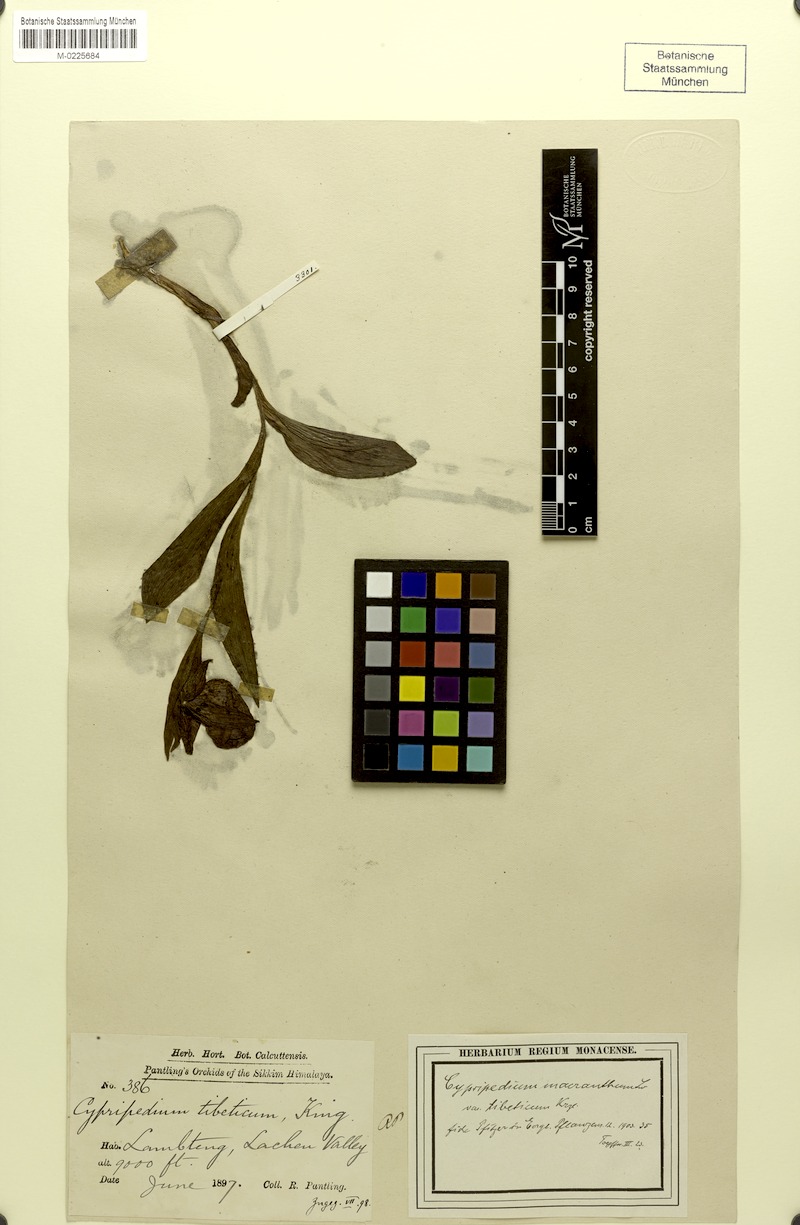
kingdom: Plantae
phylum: Tracheophyta
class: Liliopsida
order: Asparagales
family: Orchidaceae
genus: Cypripedium
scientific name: Cypripedium tibeticum
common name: Tibetan cypripedium
